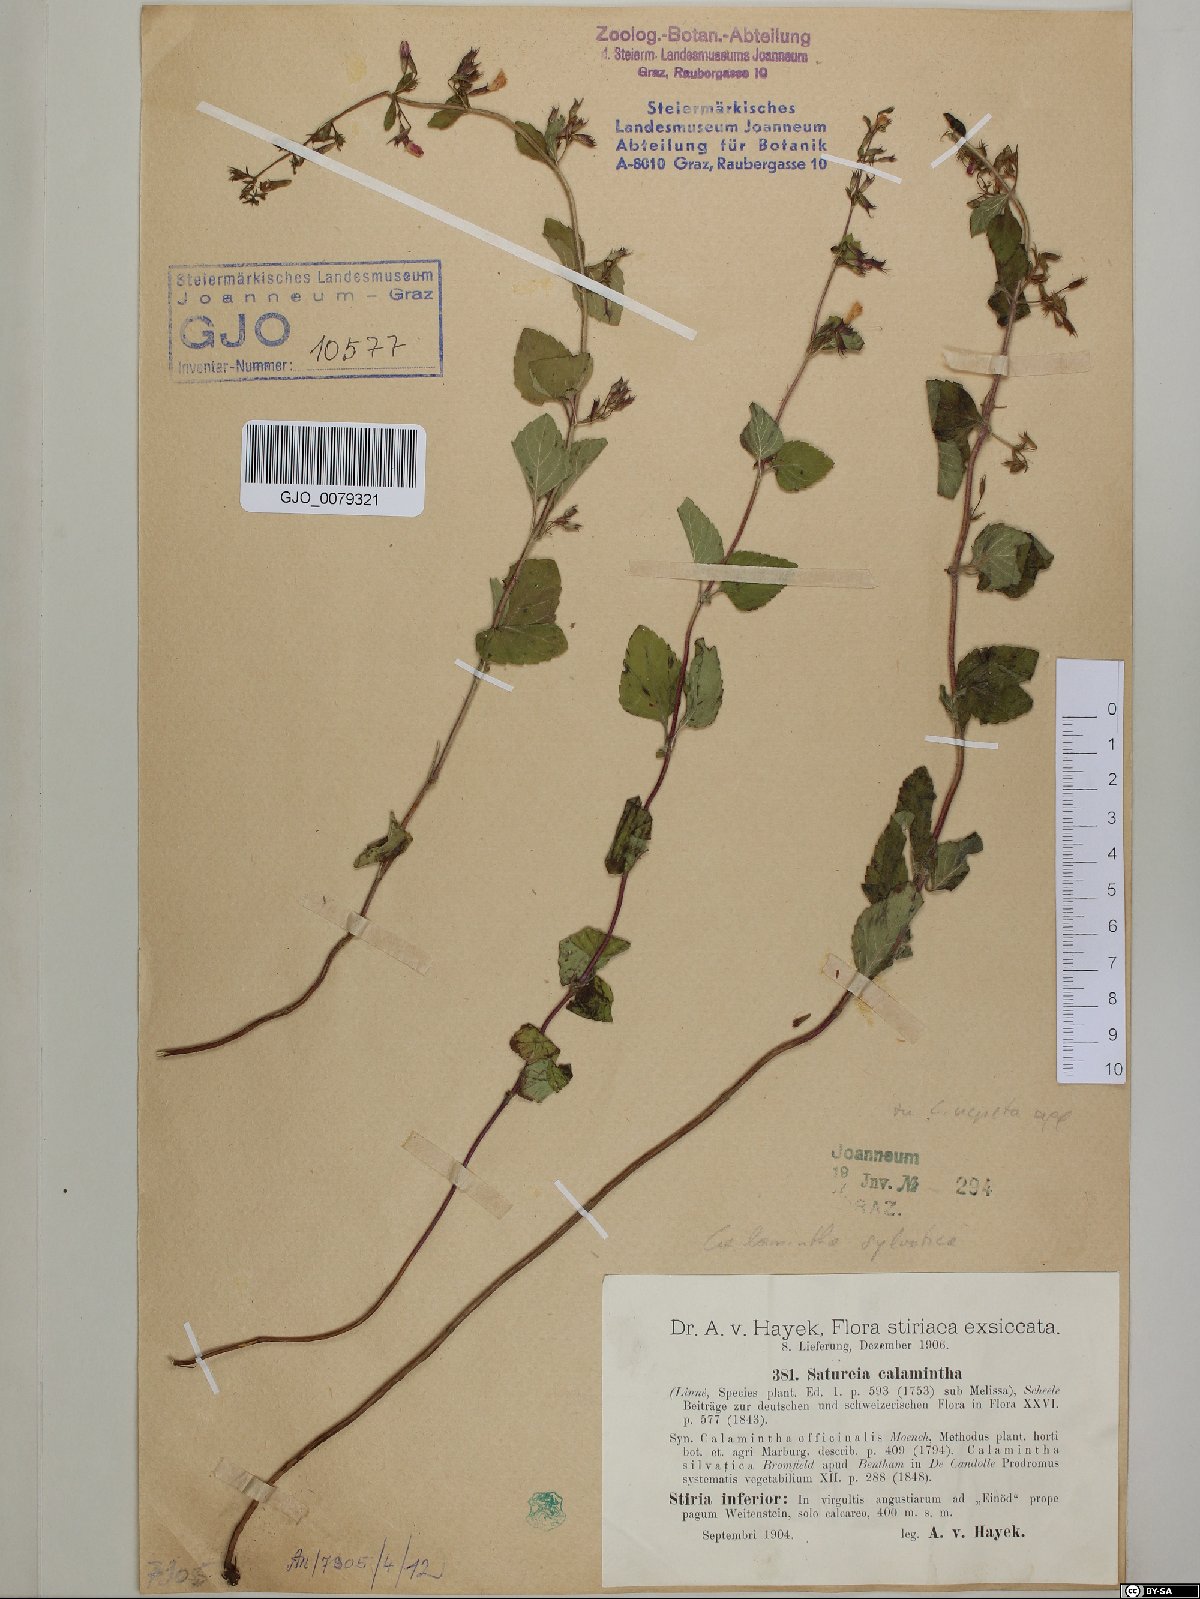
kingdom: Plantae
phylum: Tracheophyta
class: Magnoliopsida
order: Lamiales
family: Lamiaceae
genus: Clinopodium
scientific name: Clinopodium nepeta
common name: Lesser calamint
